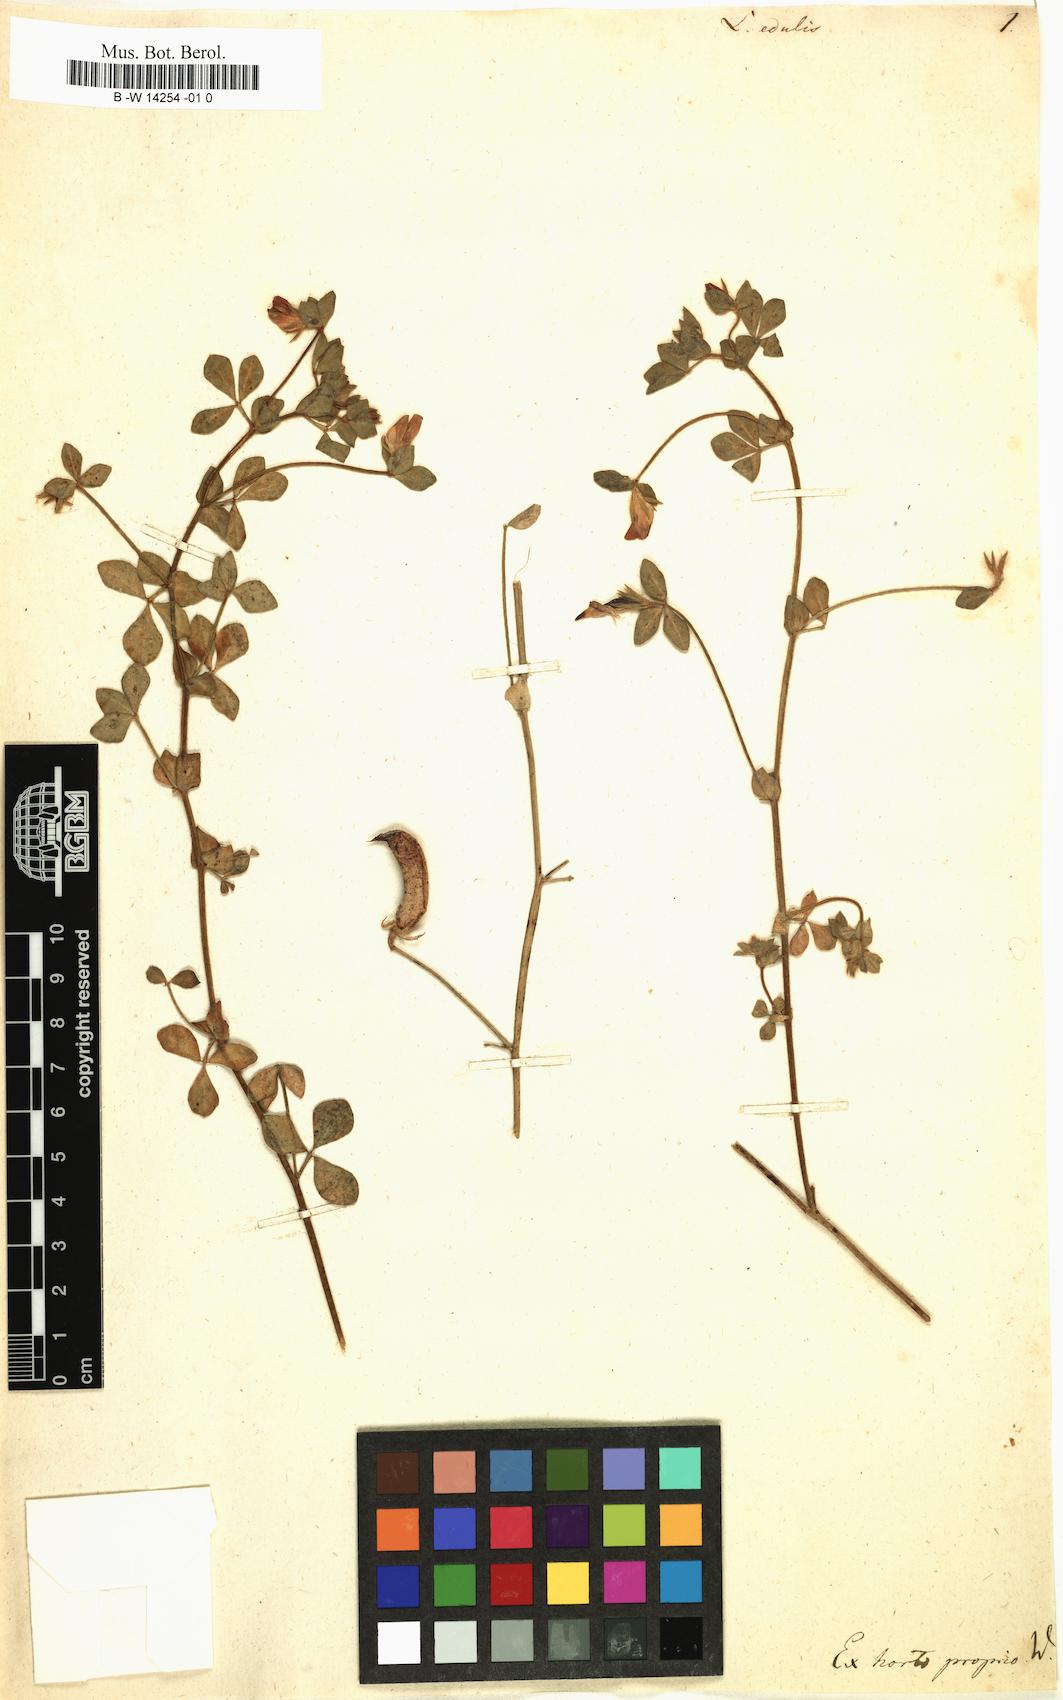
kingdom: Plantae
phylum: Tracheophyta
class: Magnoliopsida
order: Fabales
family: Fabaceae
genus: Lotus
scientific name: Lotus edulis
